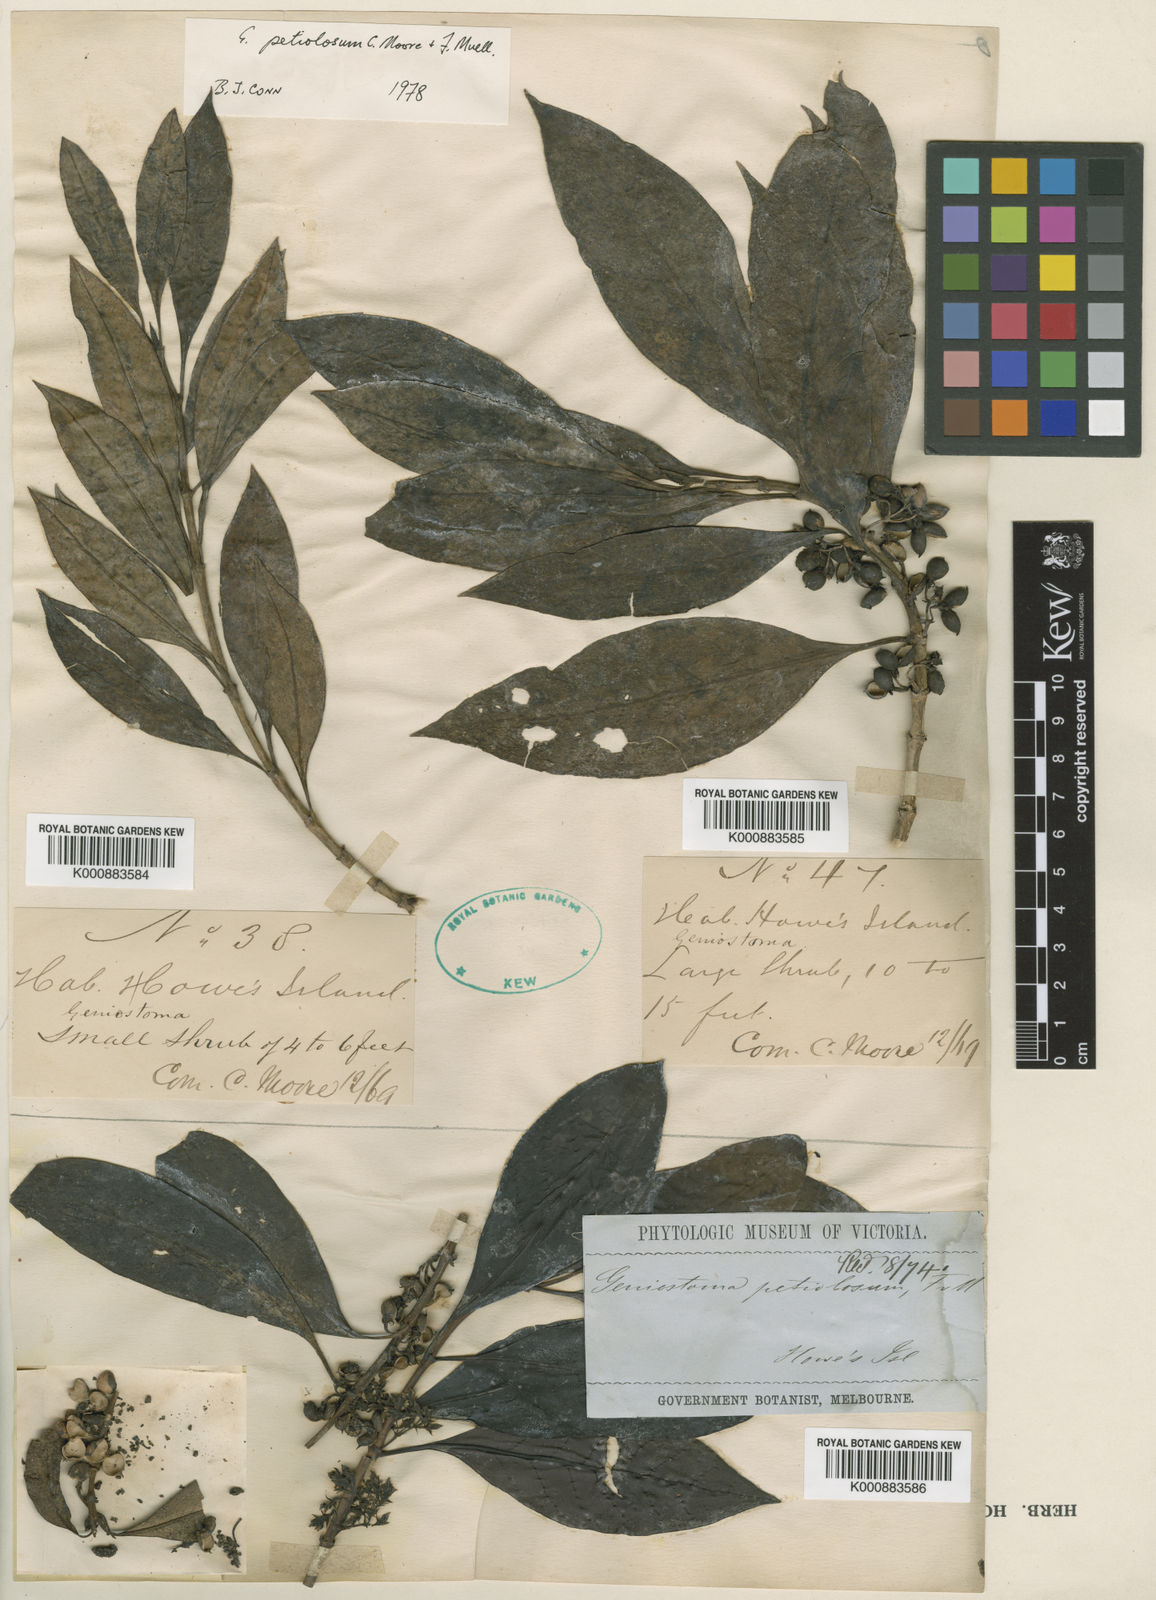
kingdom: Plantae
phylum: Tracheophyta
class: Magnoliopsida
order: Gentianales
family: Loganiaceae
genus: Geniostoma
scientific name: Geniostoma petiolosum
